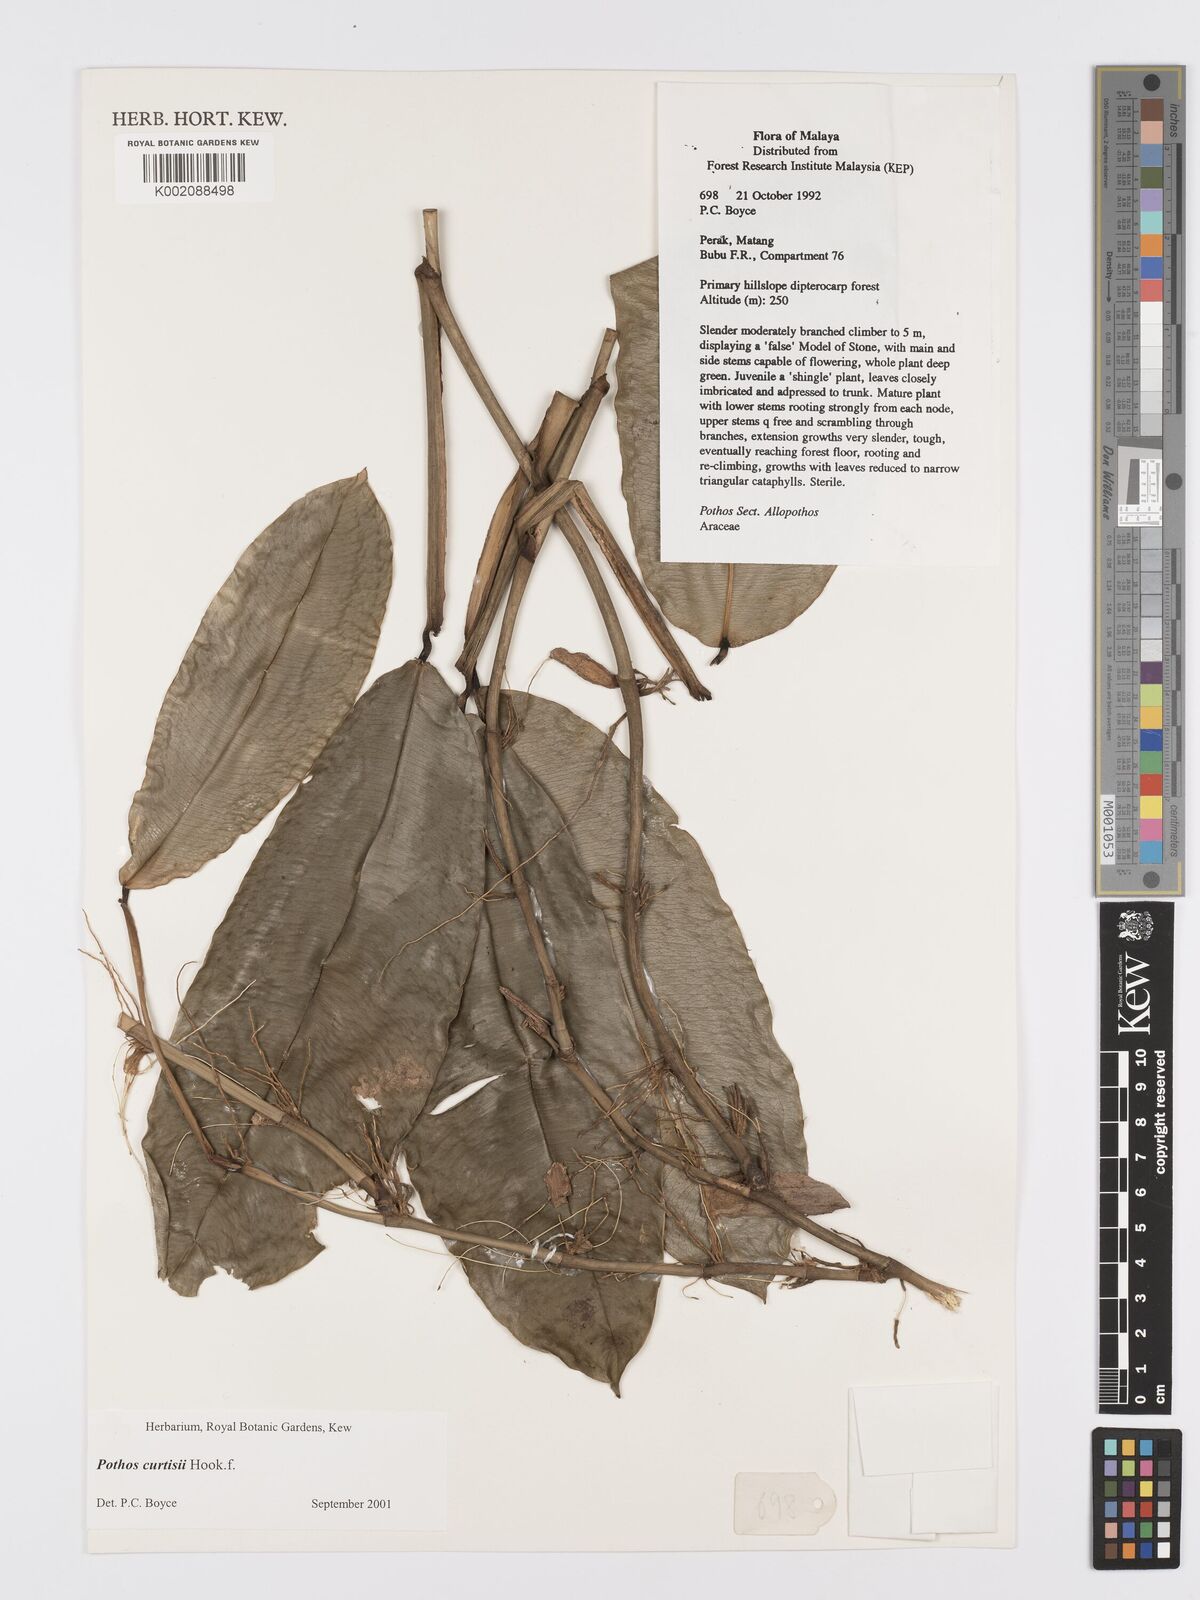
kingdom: Plantae
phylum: Tracheophyta
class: Liliopsida
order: Alismatales
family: Araceae
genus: Pothos
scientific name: Pothos curtisii
